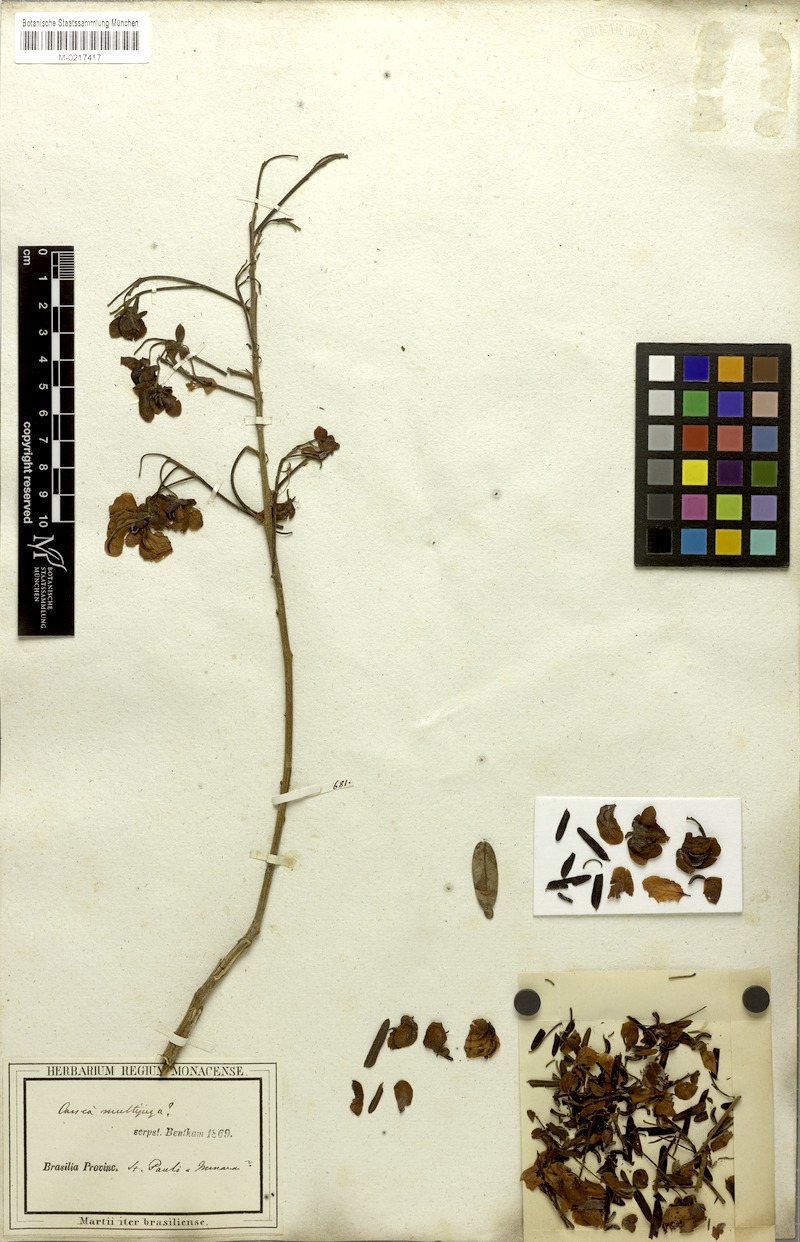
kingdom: Plantae
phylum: Tracheophyta
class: Magnoliopsida
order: Fabales
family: Fabaceae
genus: Senna
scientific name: Senna multijuga
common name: False sicklepod
